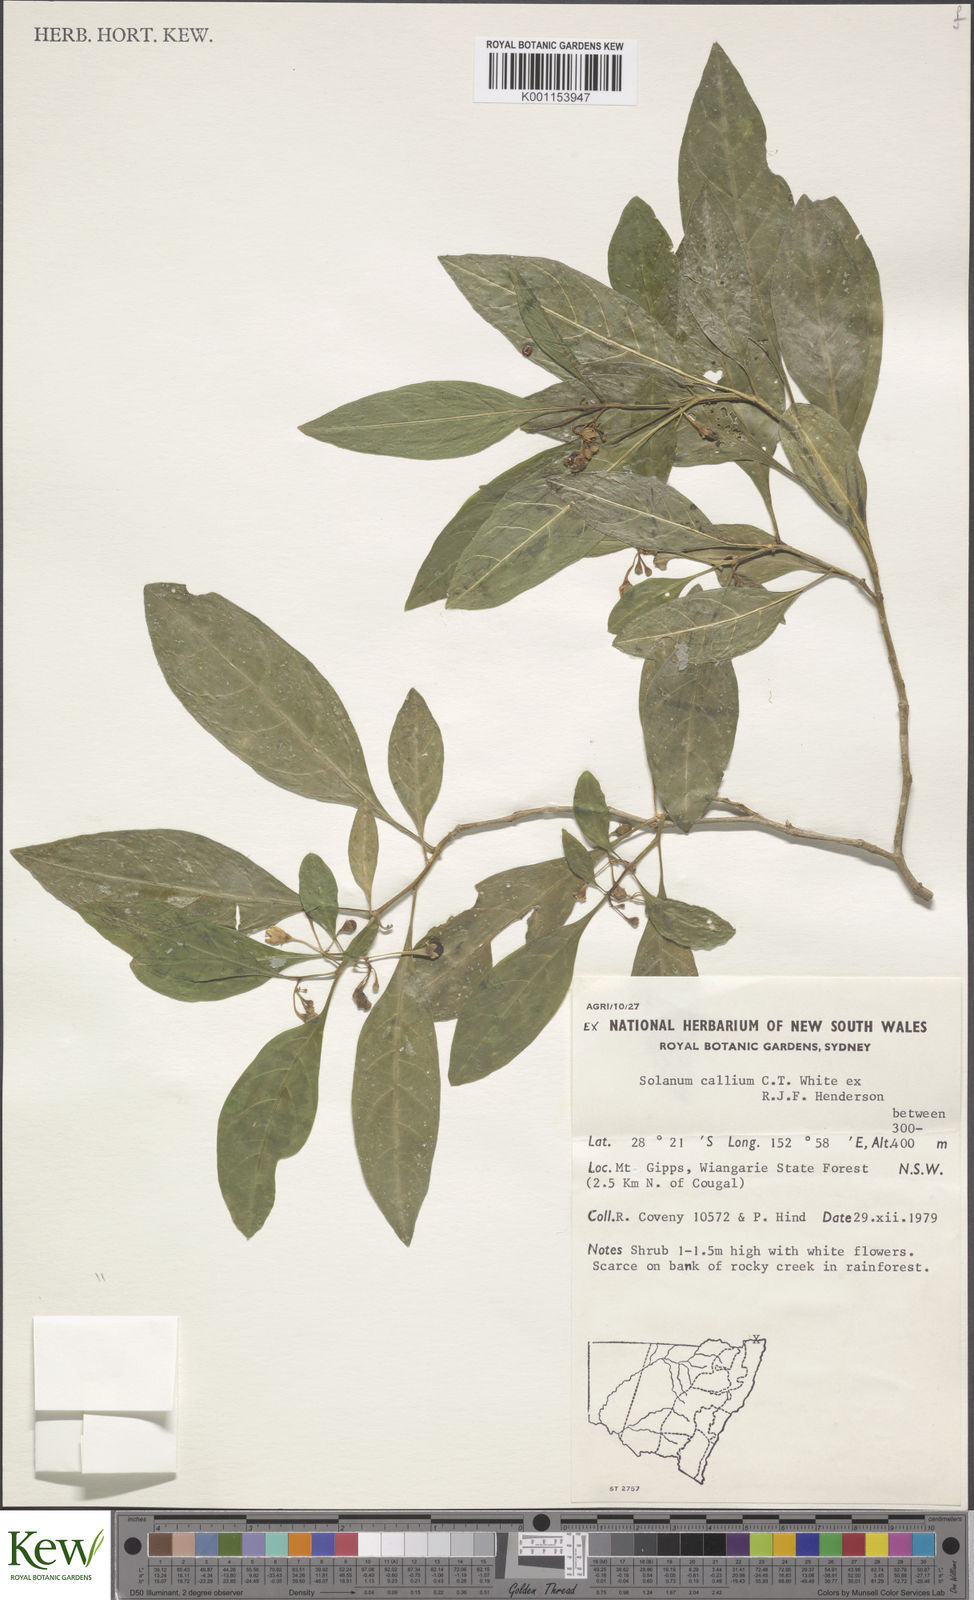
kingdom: Plantae
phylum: Tracheophyta
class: Magnoliopsida
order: Solanales
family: Solanaceae
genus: Solanum
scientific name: Solanum spirale
